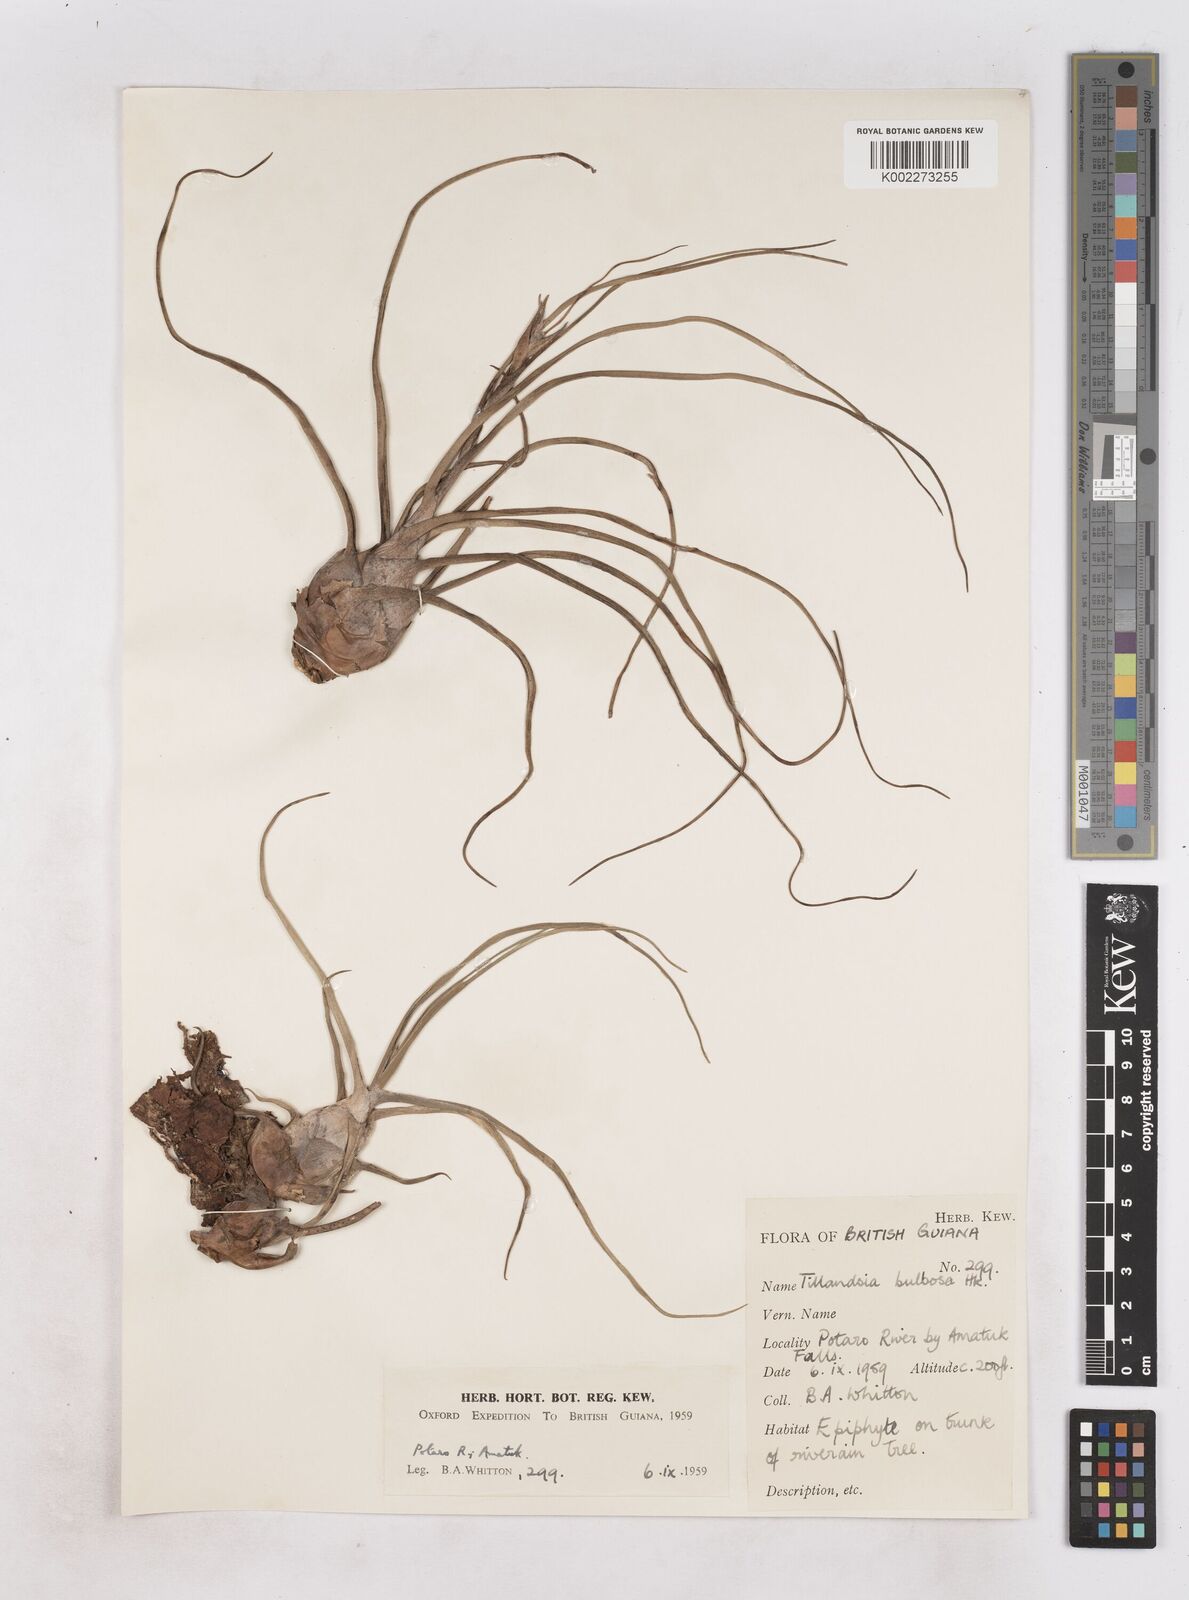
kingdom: Plantae
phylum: Tracheophyta
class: Liliopsida
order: Poales
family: Bromeliaceae
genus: Tillandsia
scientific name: Tillandsia bulbosa
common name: Bulbous airplant
